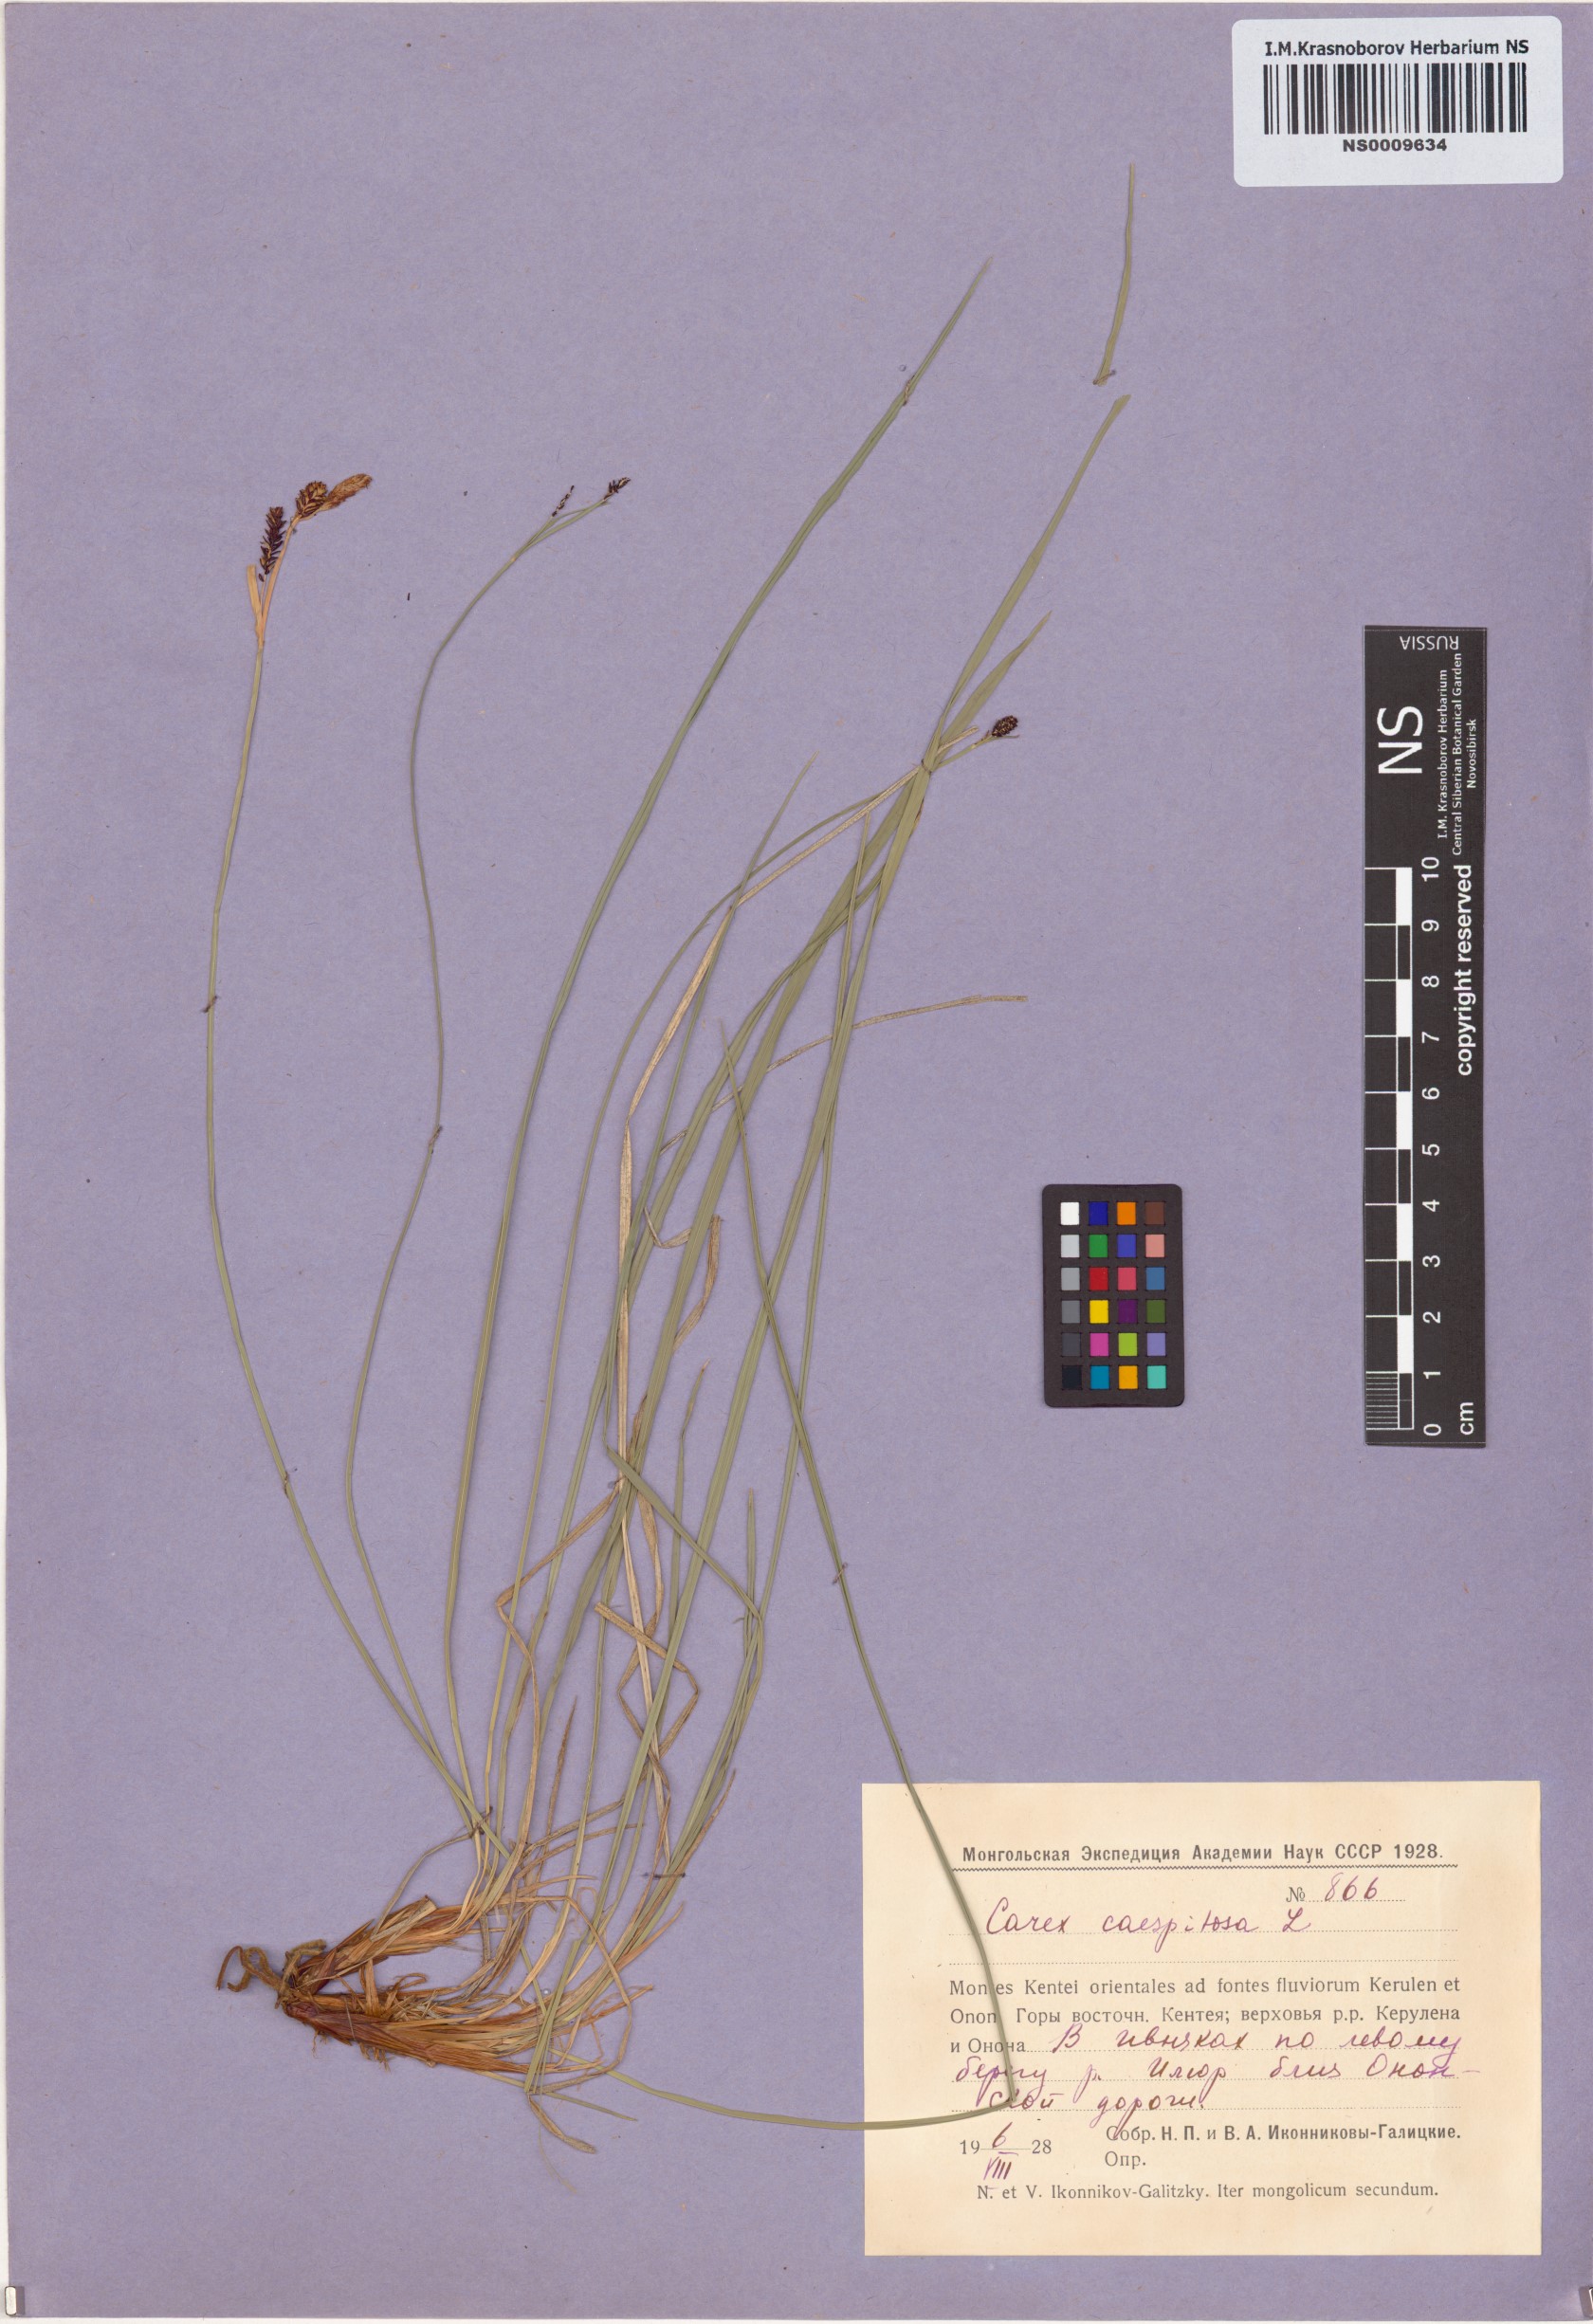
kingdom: Plantae
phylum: Tracheophyta
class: Liliopsida
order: Poales
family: Cyperaceae
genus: Carex
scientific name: Carex cespitosa
